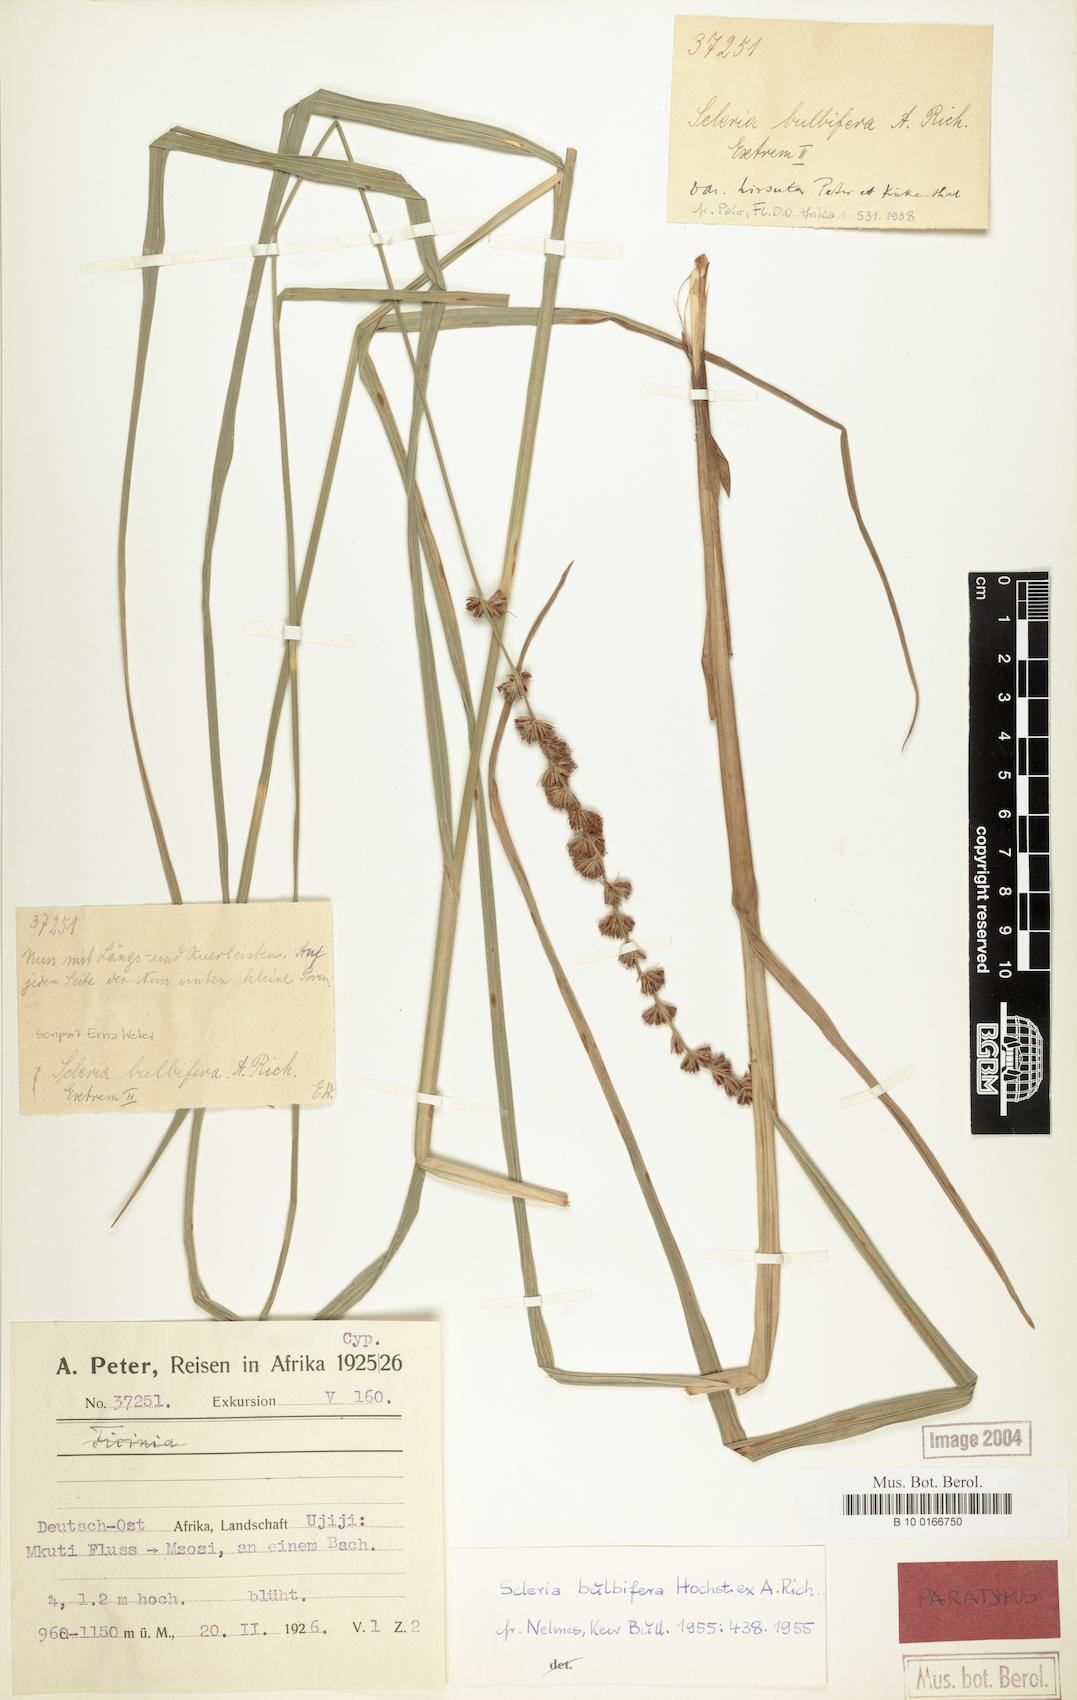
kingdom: Plantae
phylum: Tracheophyta
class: Liliopsida
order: Poales
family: Cyperaceae
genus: Scleria
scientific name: Scleria bulbifera
